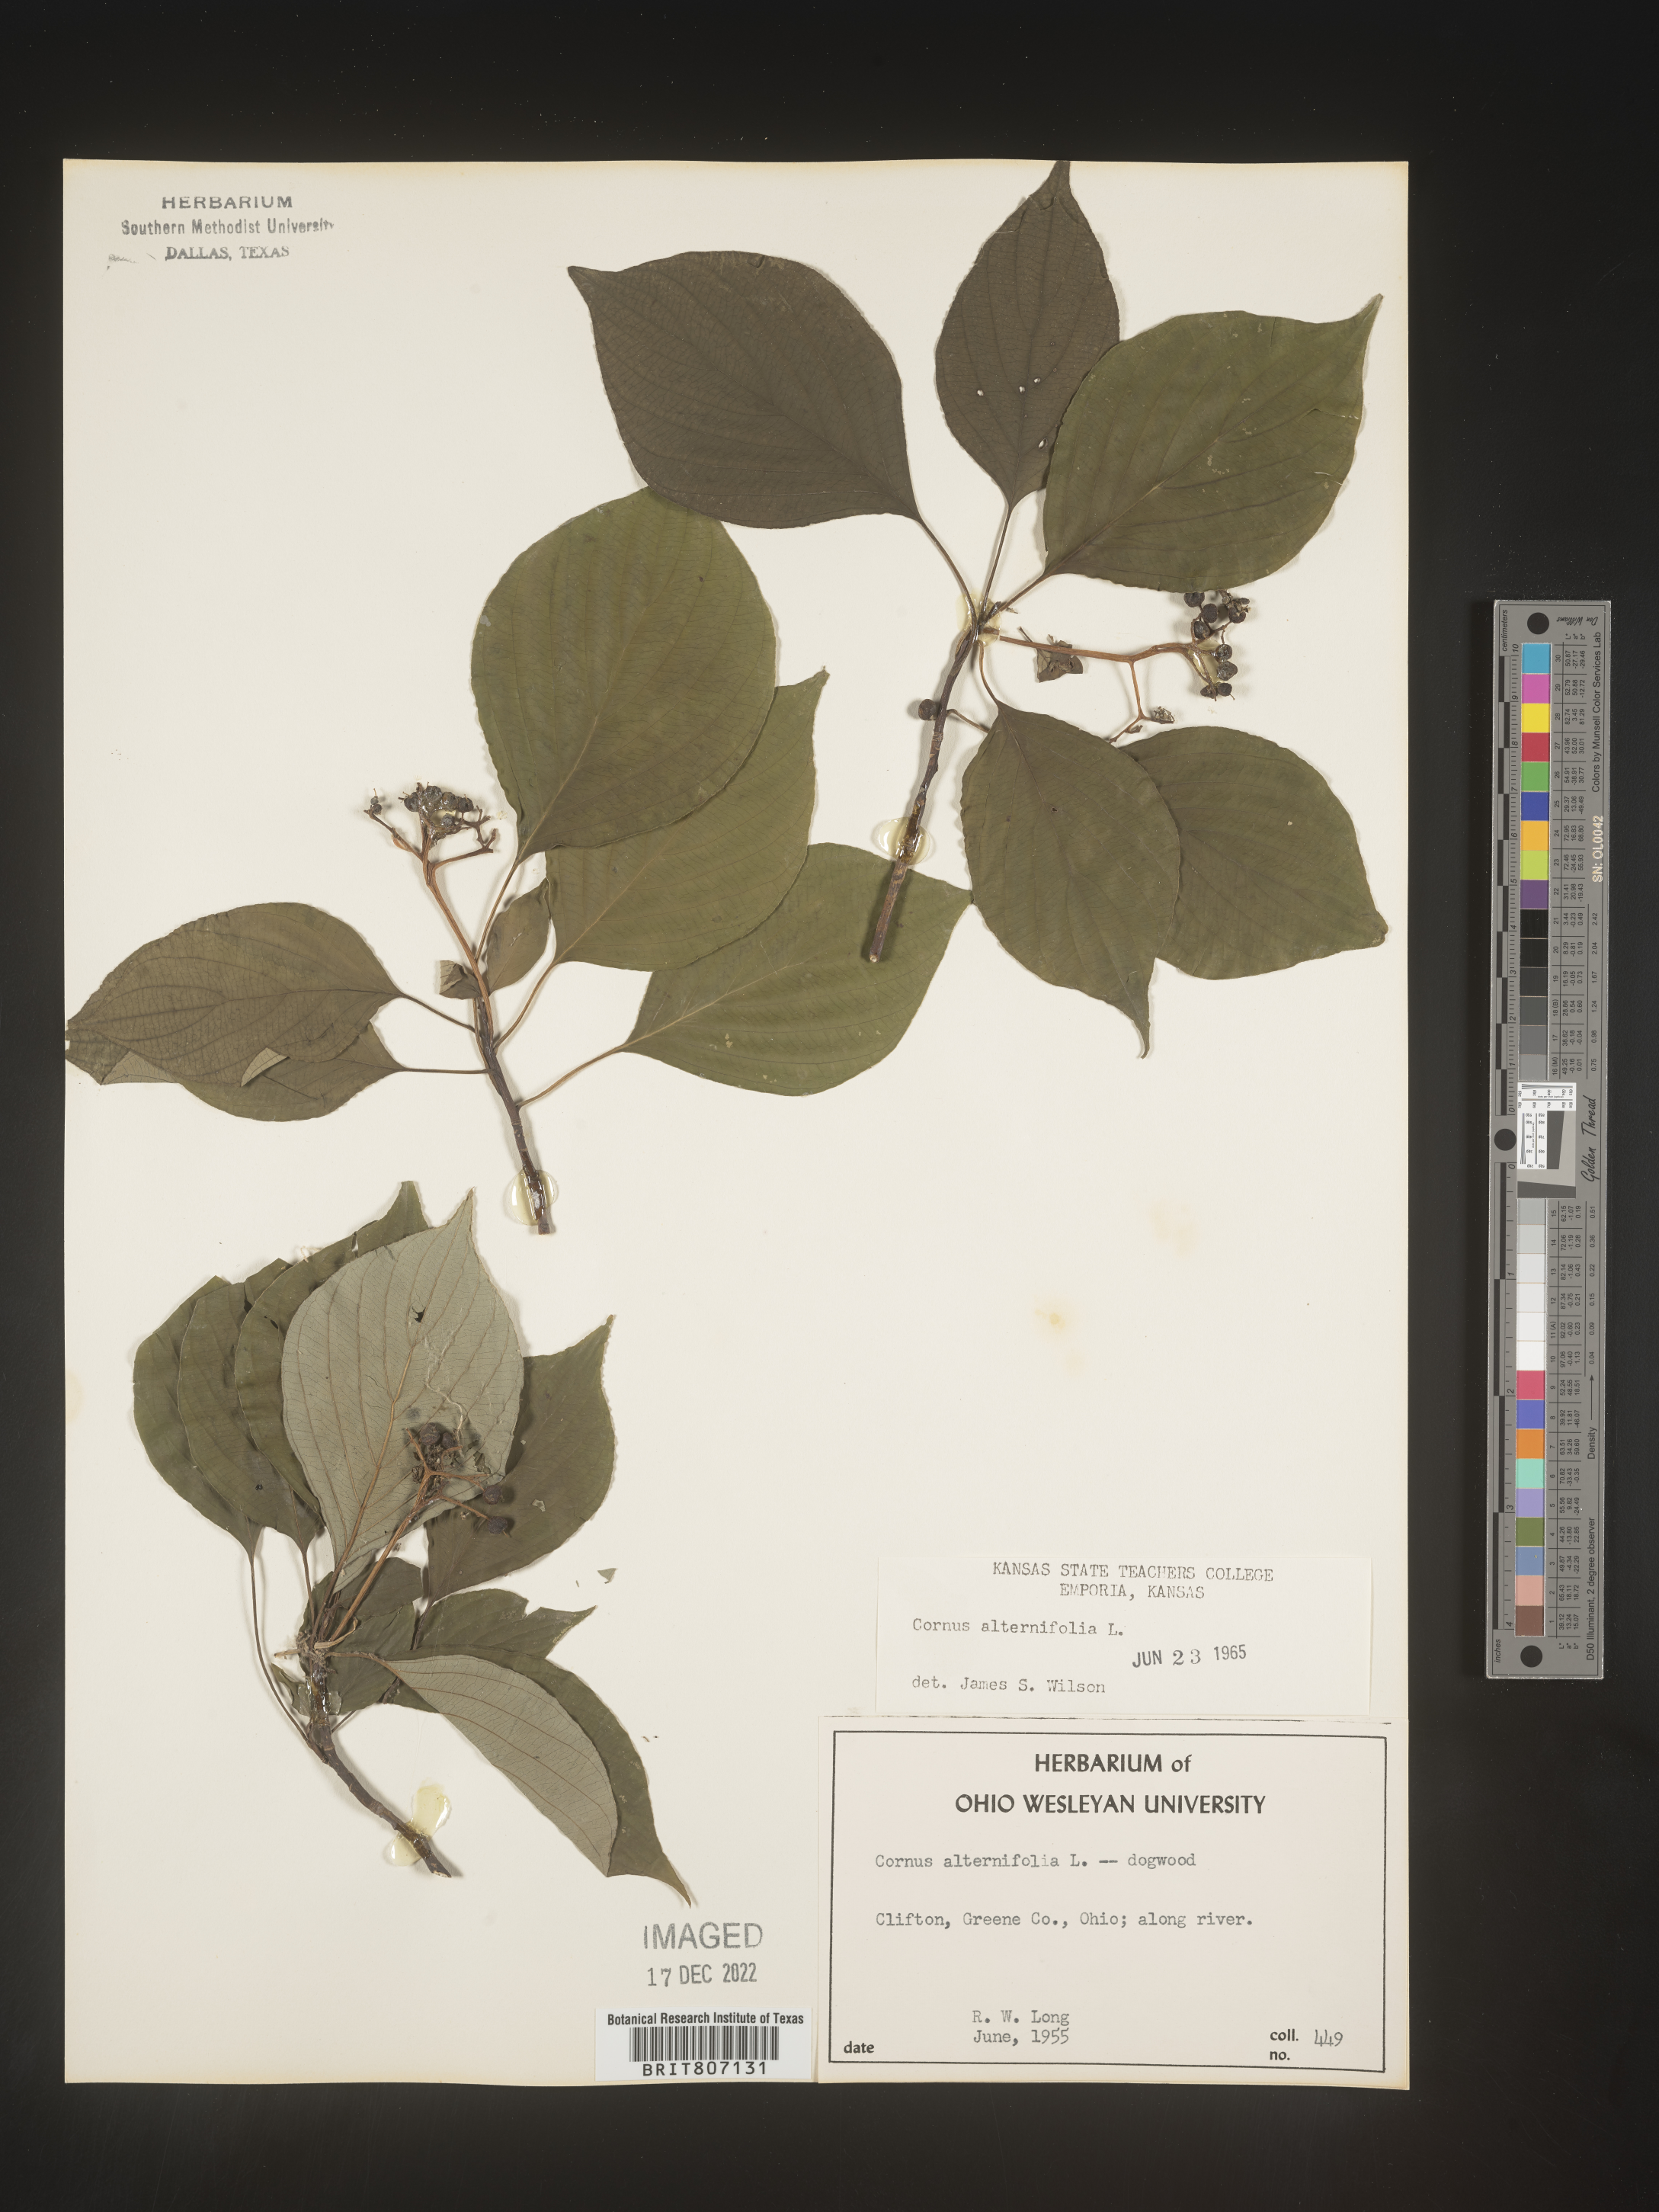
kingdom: Plantae
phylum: Tracheophyta
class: Magnoliopsida
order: Cornales
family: Cornaceae
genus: Cornus
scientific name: Cornus alternifolia
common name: Pagoda dogwood
